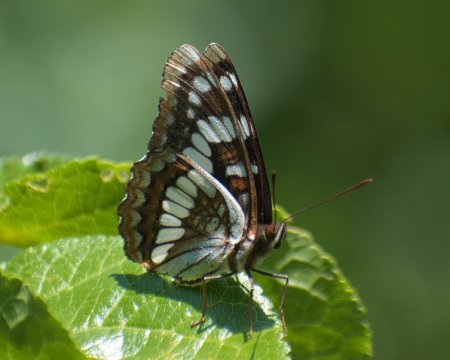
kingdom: Animalia
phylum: Arthropoda
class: Insecta
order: Lepidoptera
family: Nymphalidae
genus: Limenitis
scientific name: Limenitis lorquini
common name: Lorquin's Admiral
